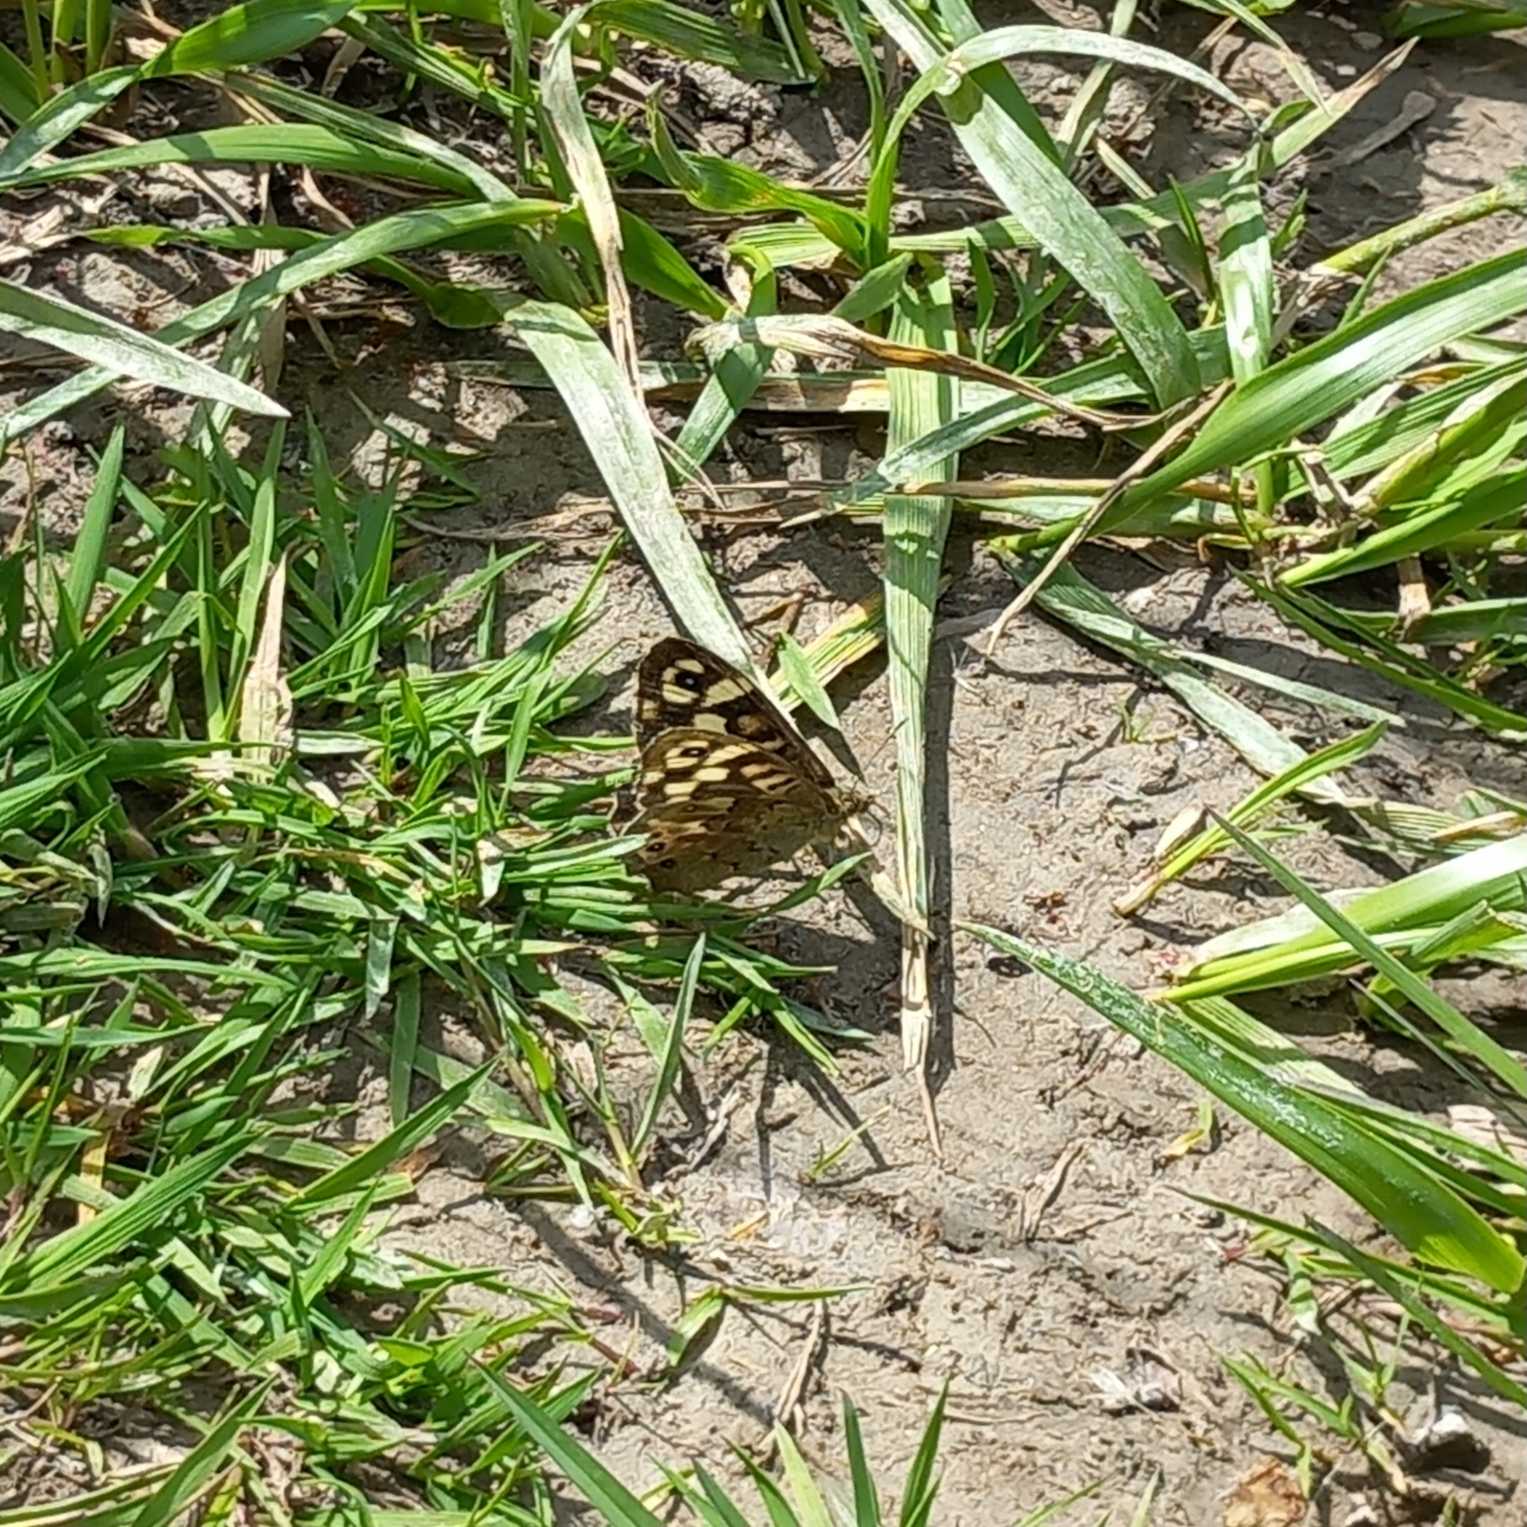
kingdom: Animalia
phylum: Arthropoda
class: Insecta
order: Lepidoptera
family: Nymphalidae
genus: Pararge
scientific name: Pararge aegeria
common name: Skovrandøje
